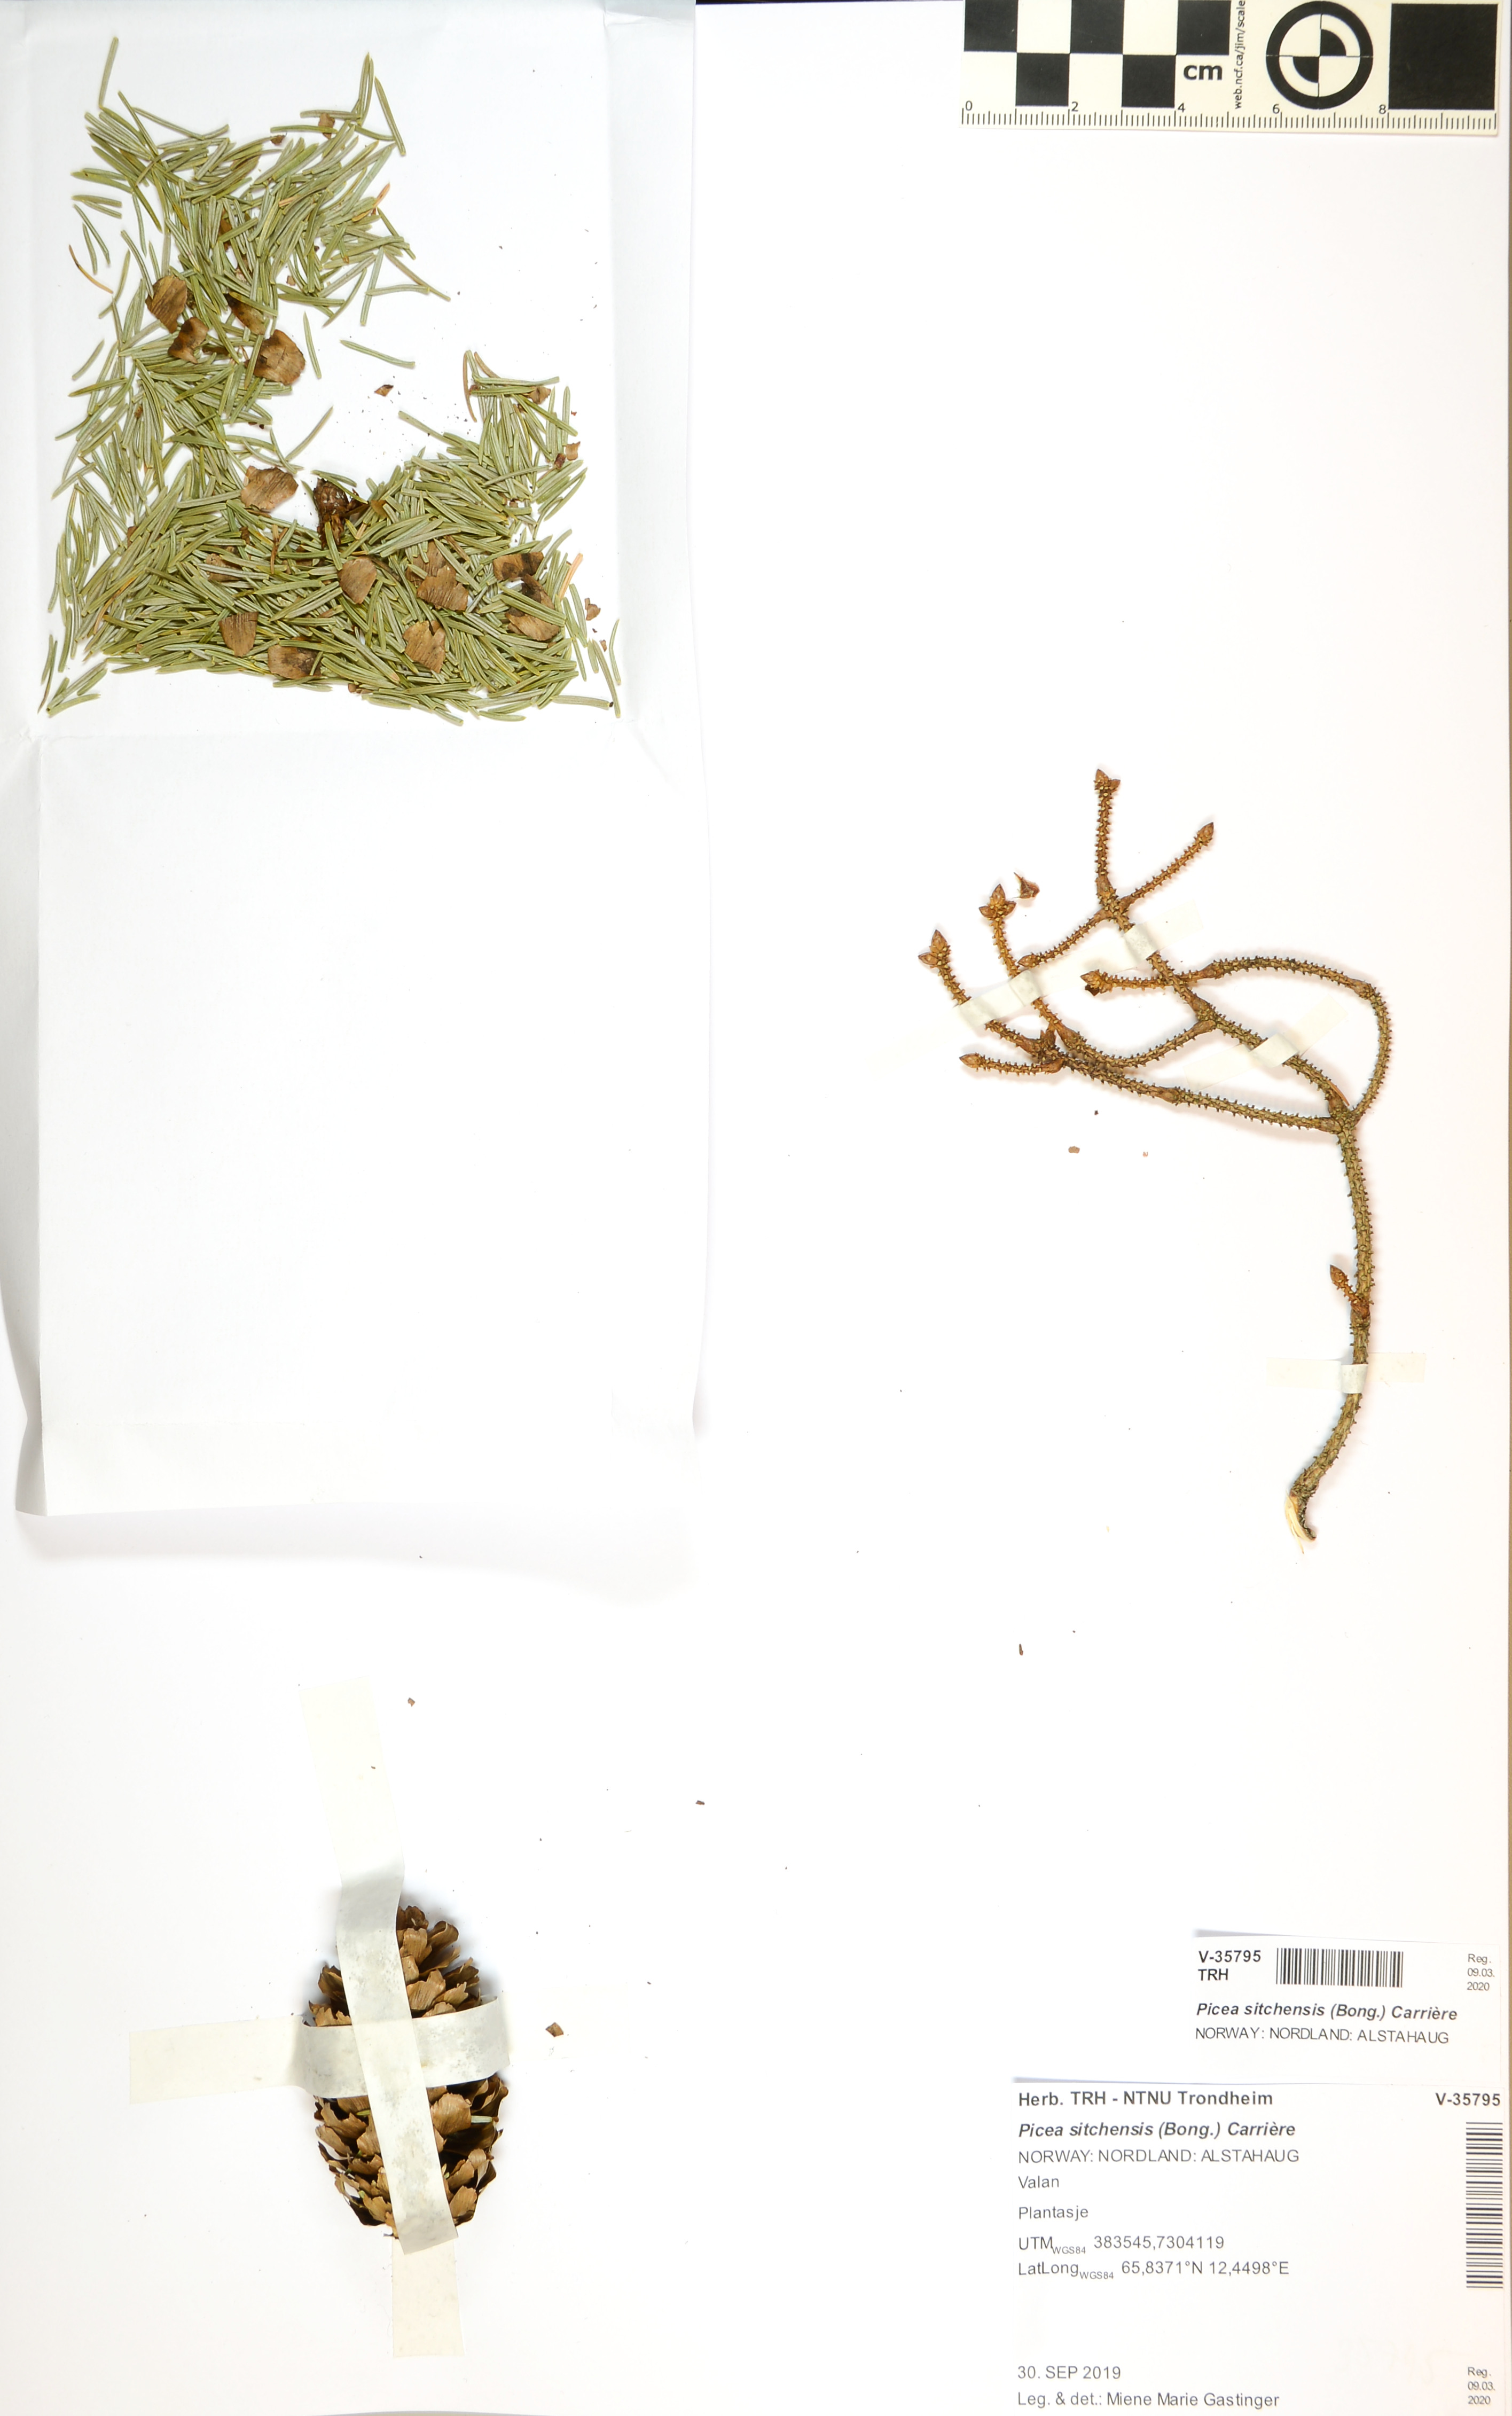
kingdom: Plantae
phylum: Tracheophyta
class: Pinopsida
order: Pinales
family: Pinaceae
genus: Picea
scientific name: Picea sitchensis
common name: Sitka spruce
